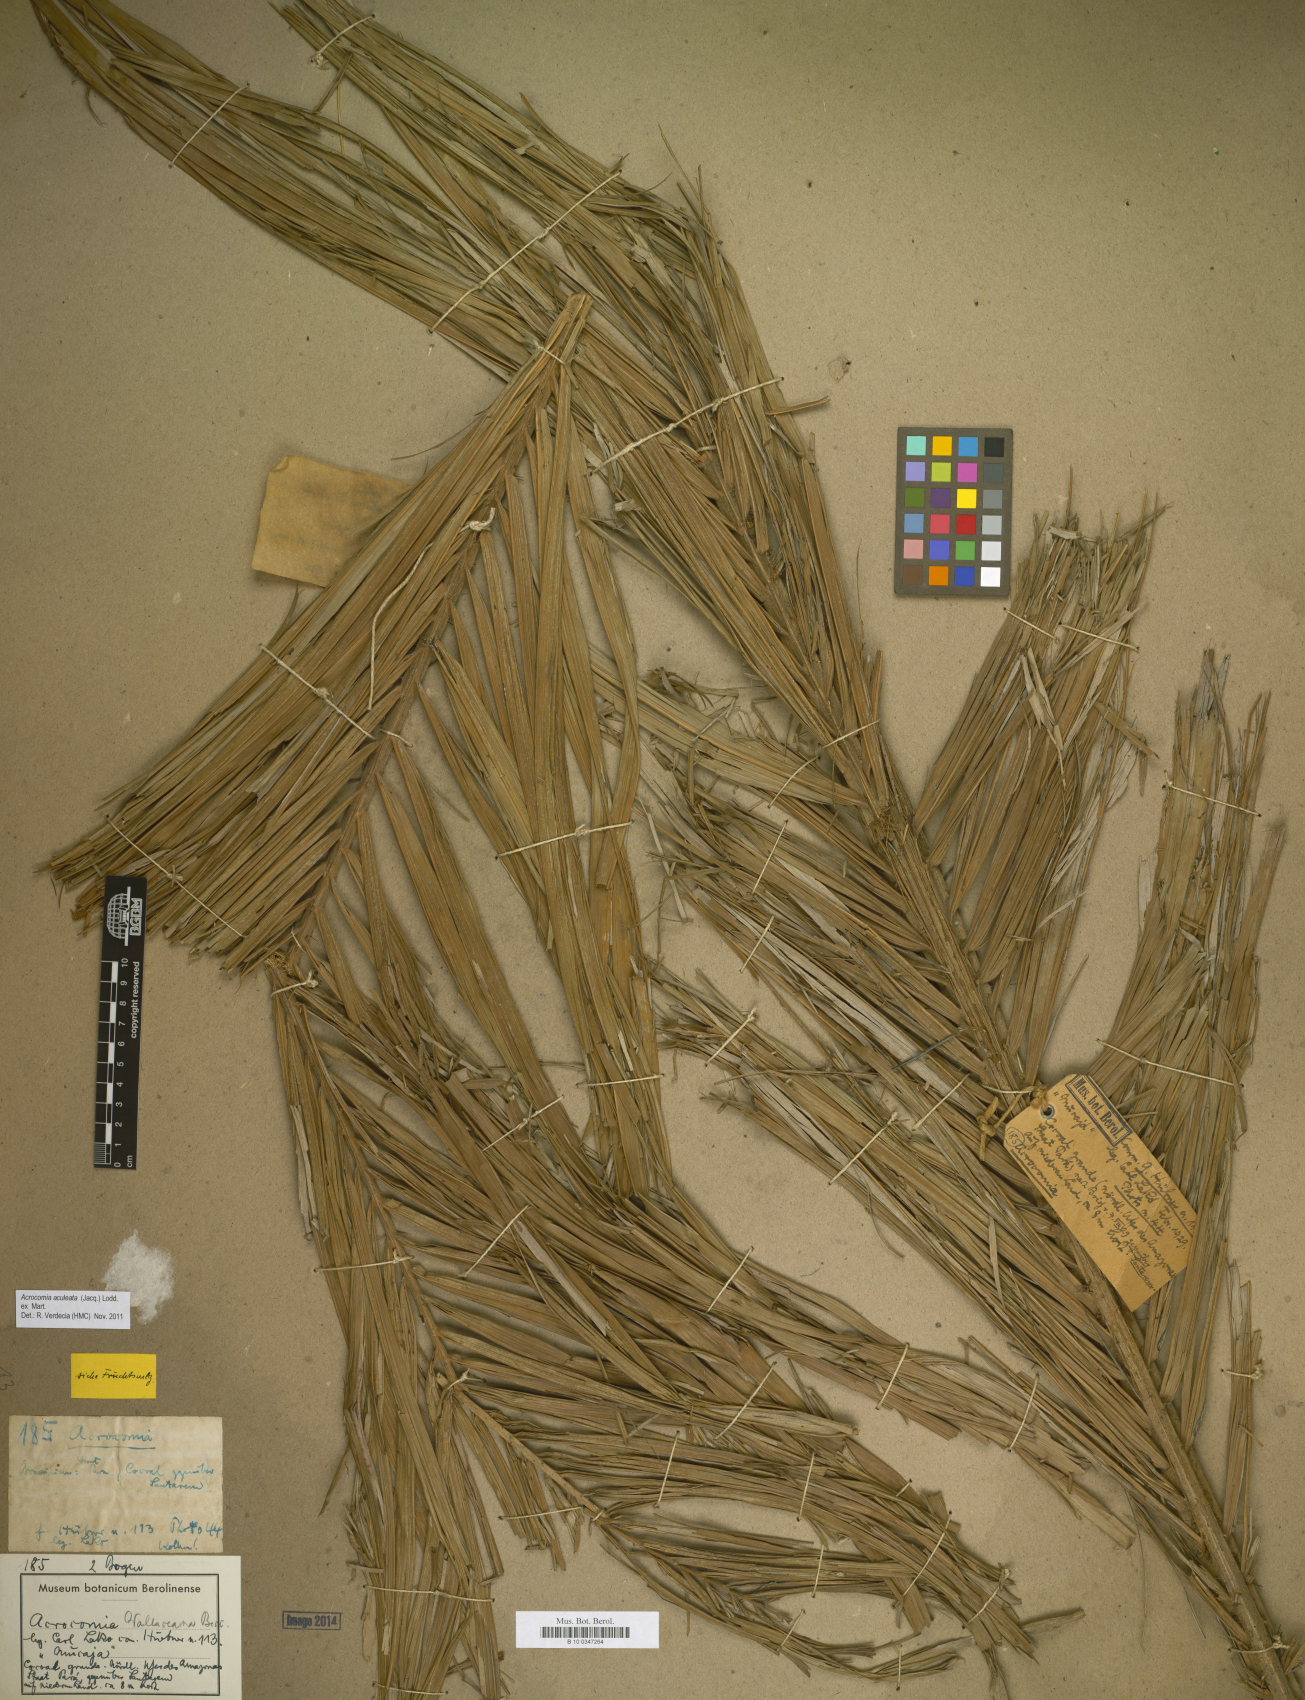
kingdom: Plantae
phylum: Tracheophyta
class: Liliopsida
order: Arecales
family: Arecaceae
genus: Acrocomia
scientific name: Acrocomia aculeata
